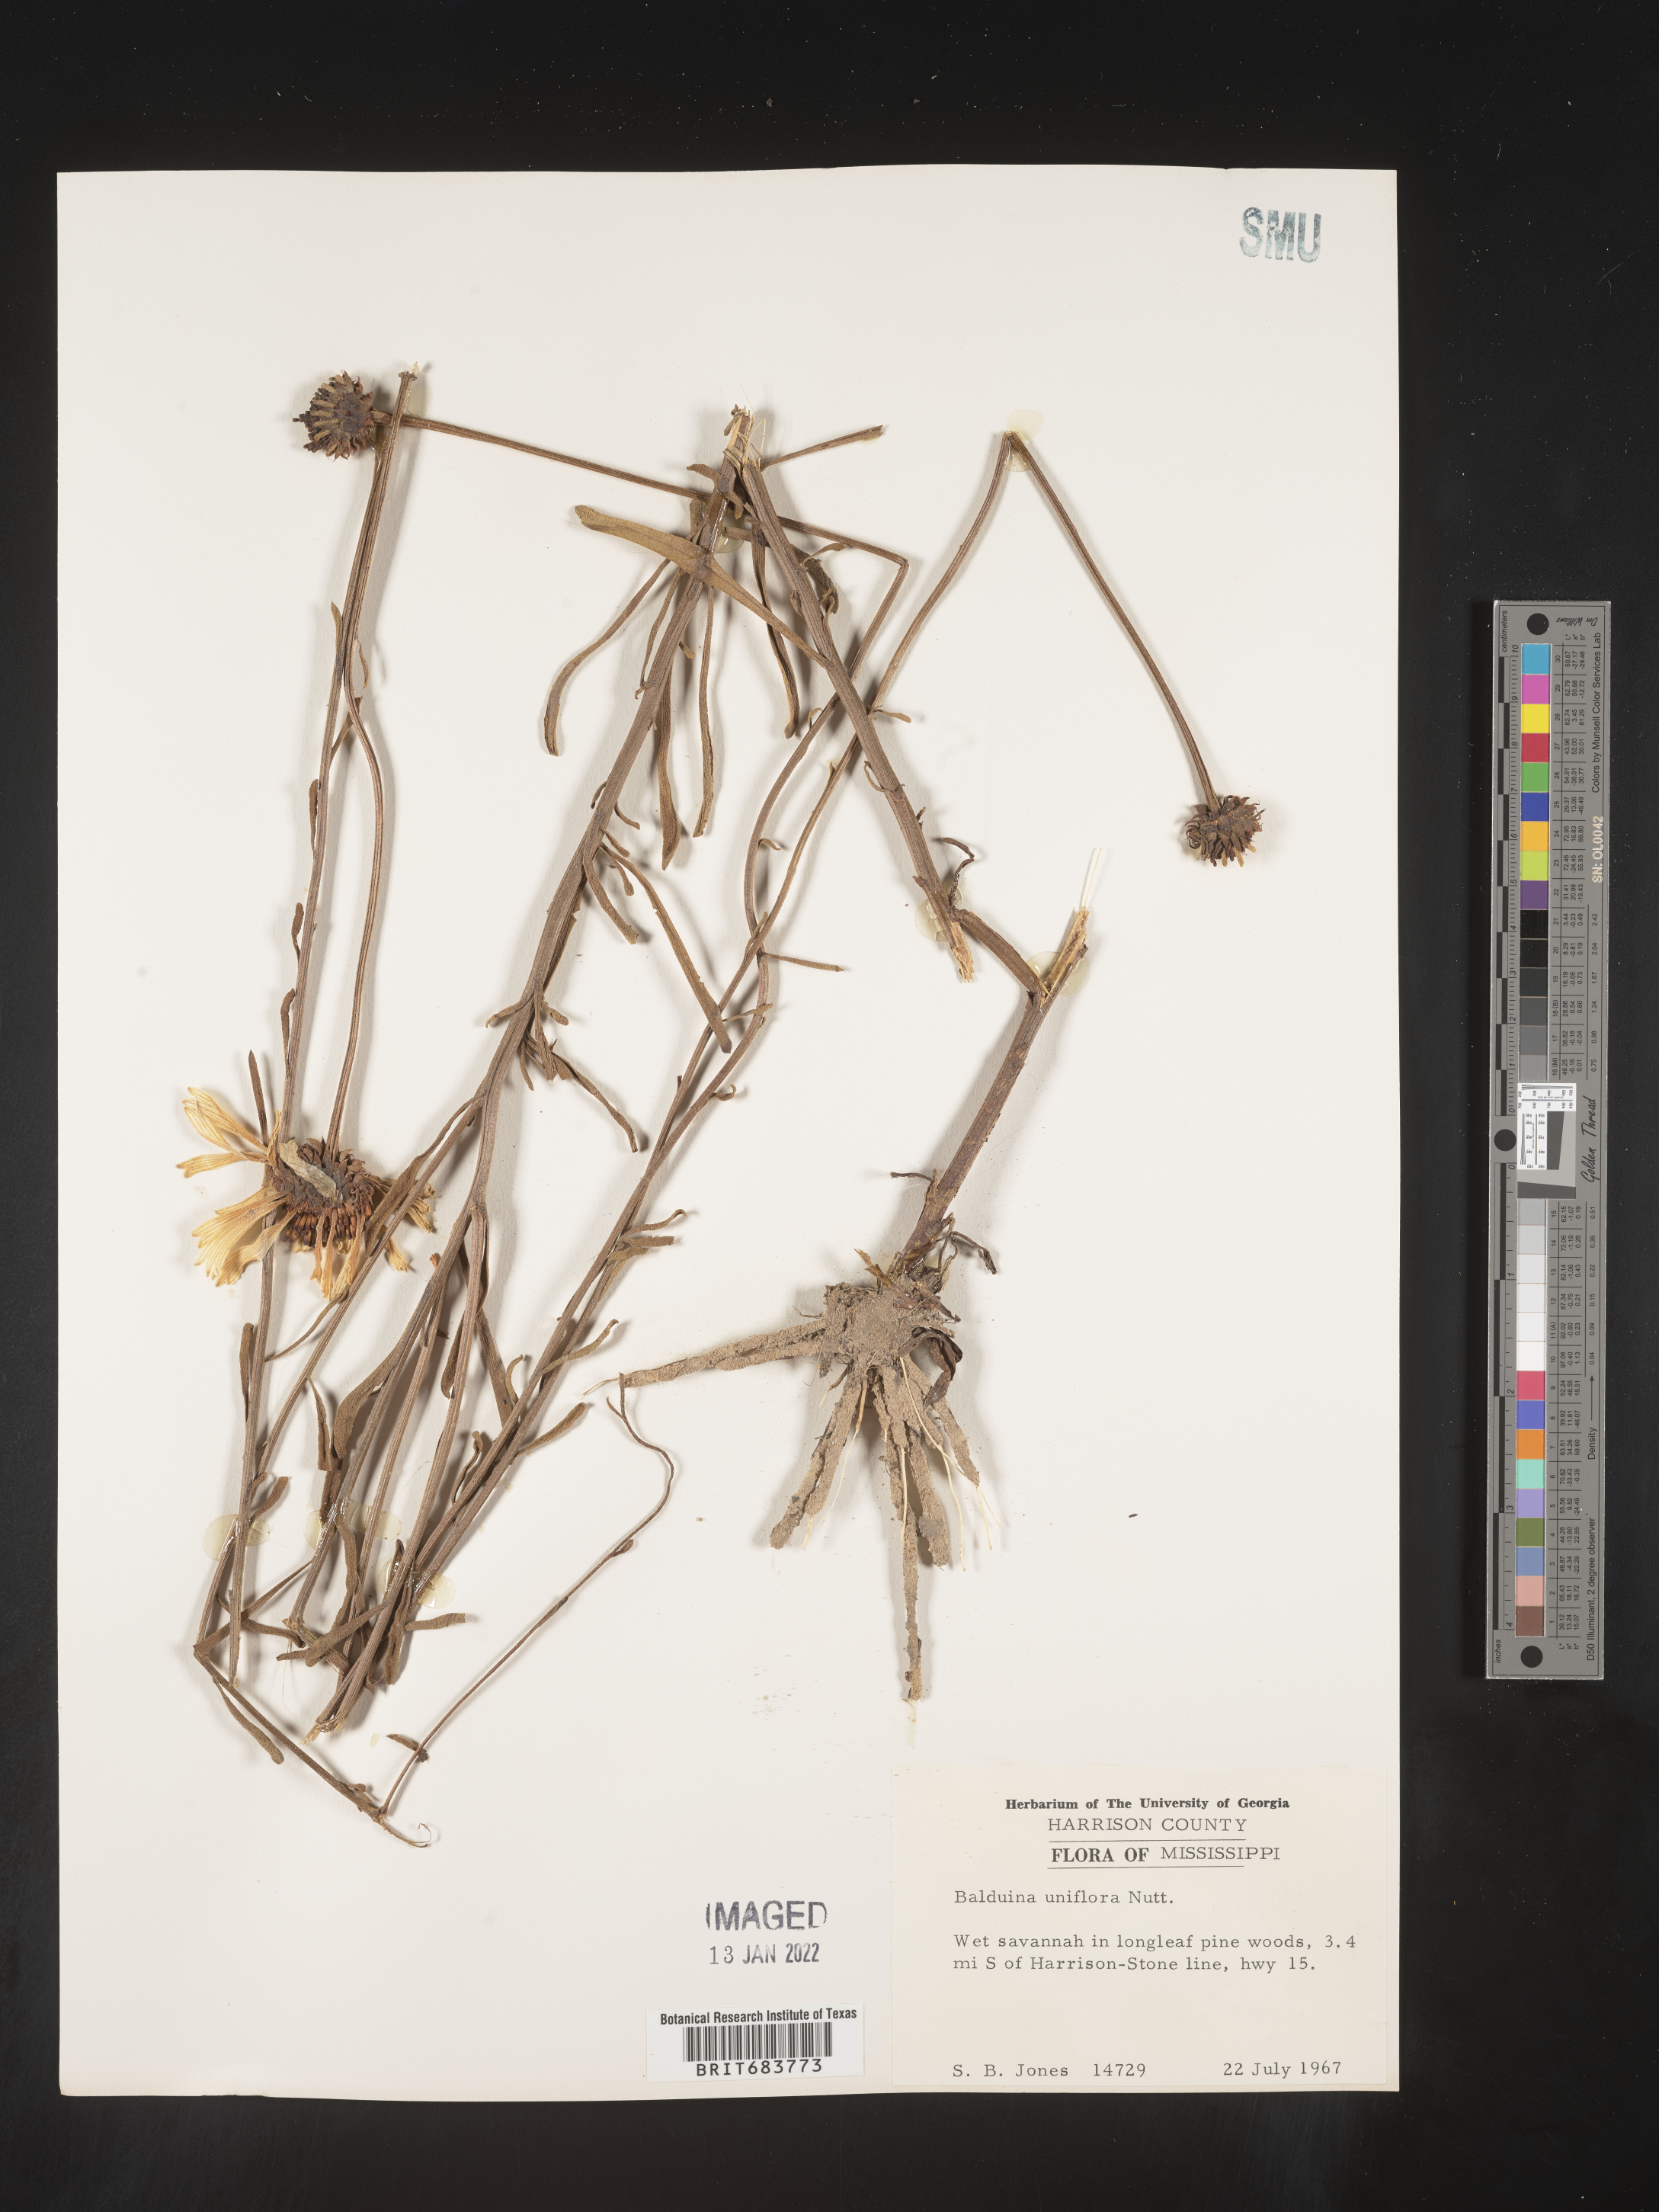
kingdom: Plantae
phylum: Tracheophyta
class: Magnoliopsida
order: Asterales
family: Asteraceae
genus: Balduina
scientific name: Balduina uniflora
